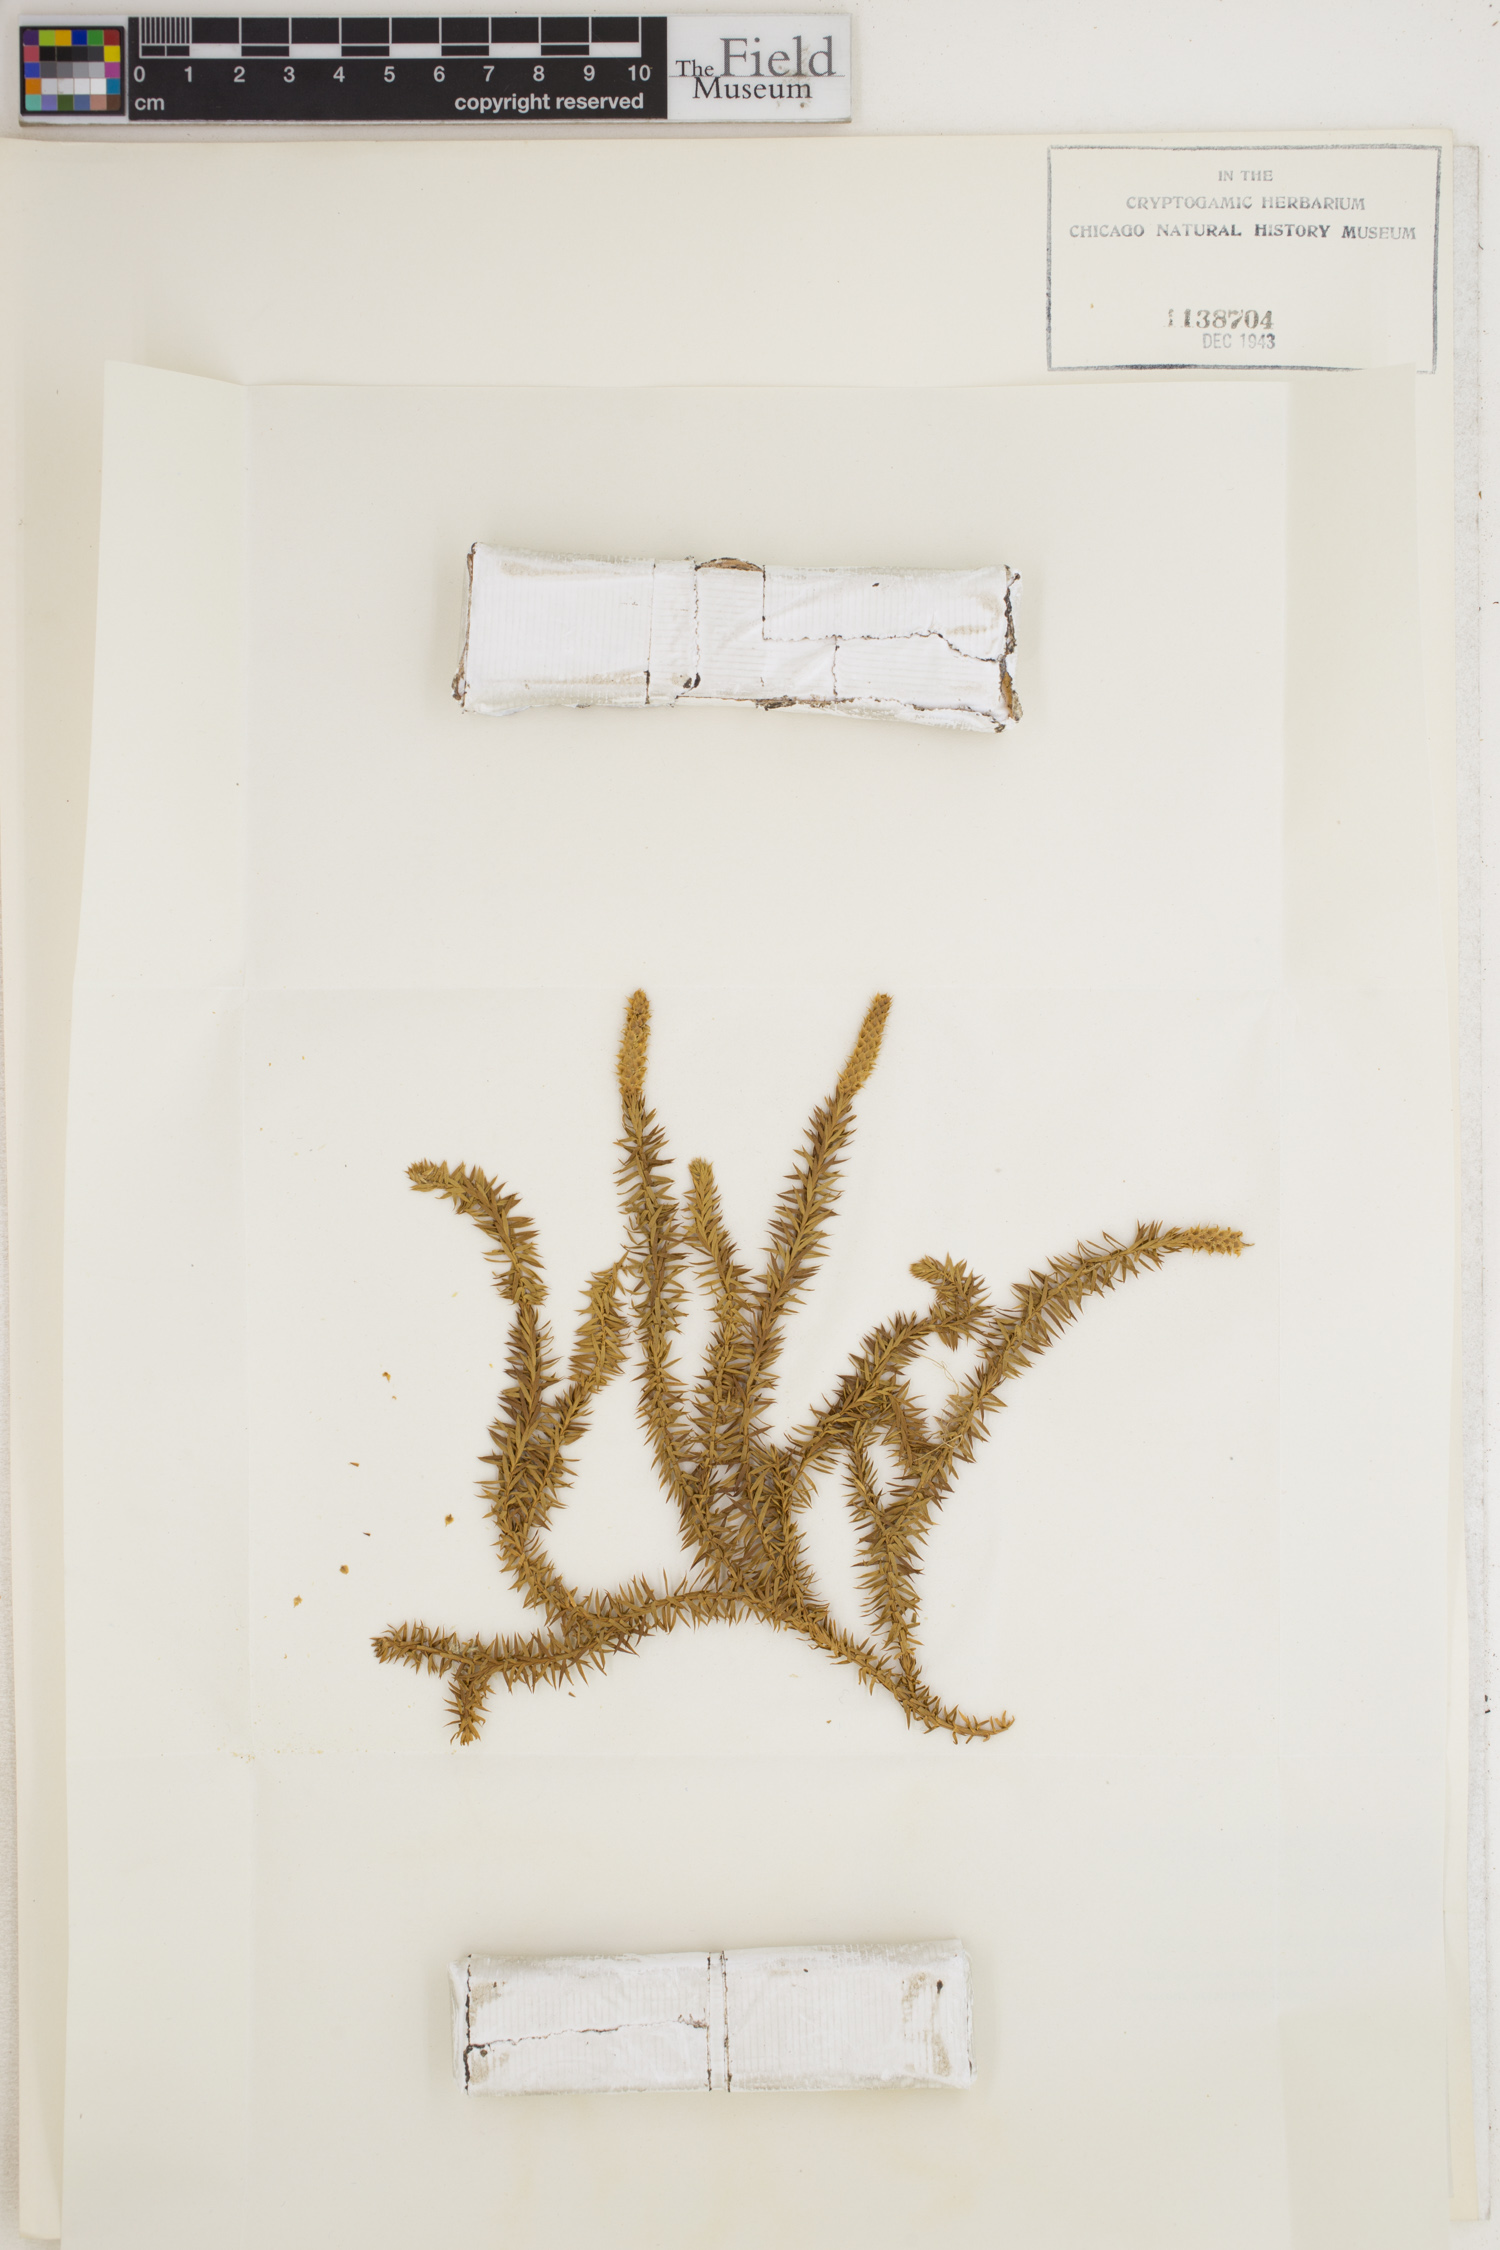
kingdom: Plantae
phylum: Tracheophyta
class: Lycopodiopsida
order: Lycopodiales
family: Lycopodiaceae
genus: Spinulum
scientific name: Spinulum annotinum
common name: Interrupted club-moss
